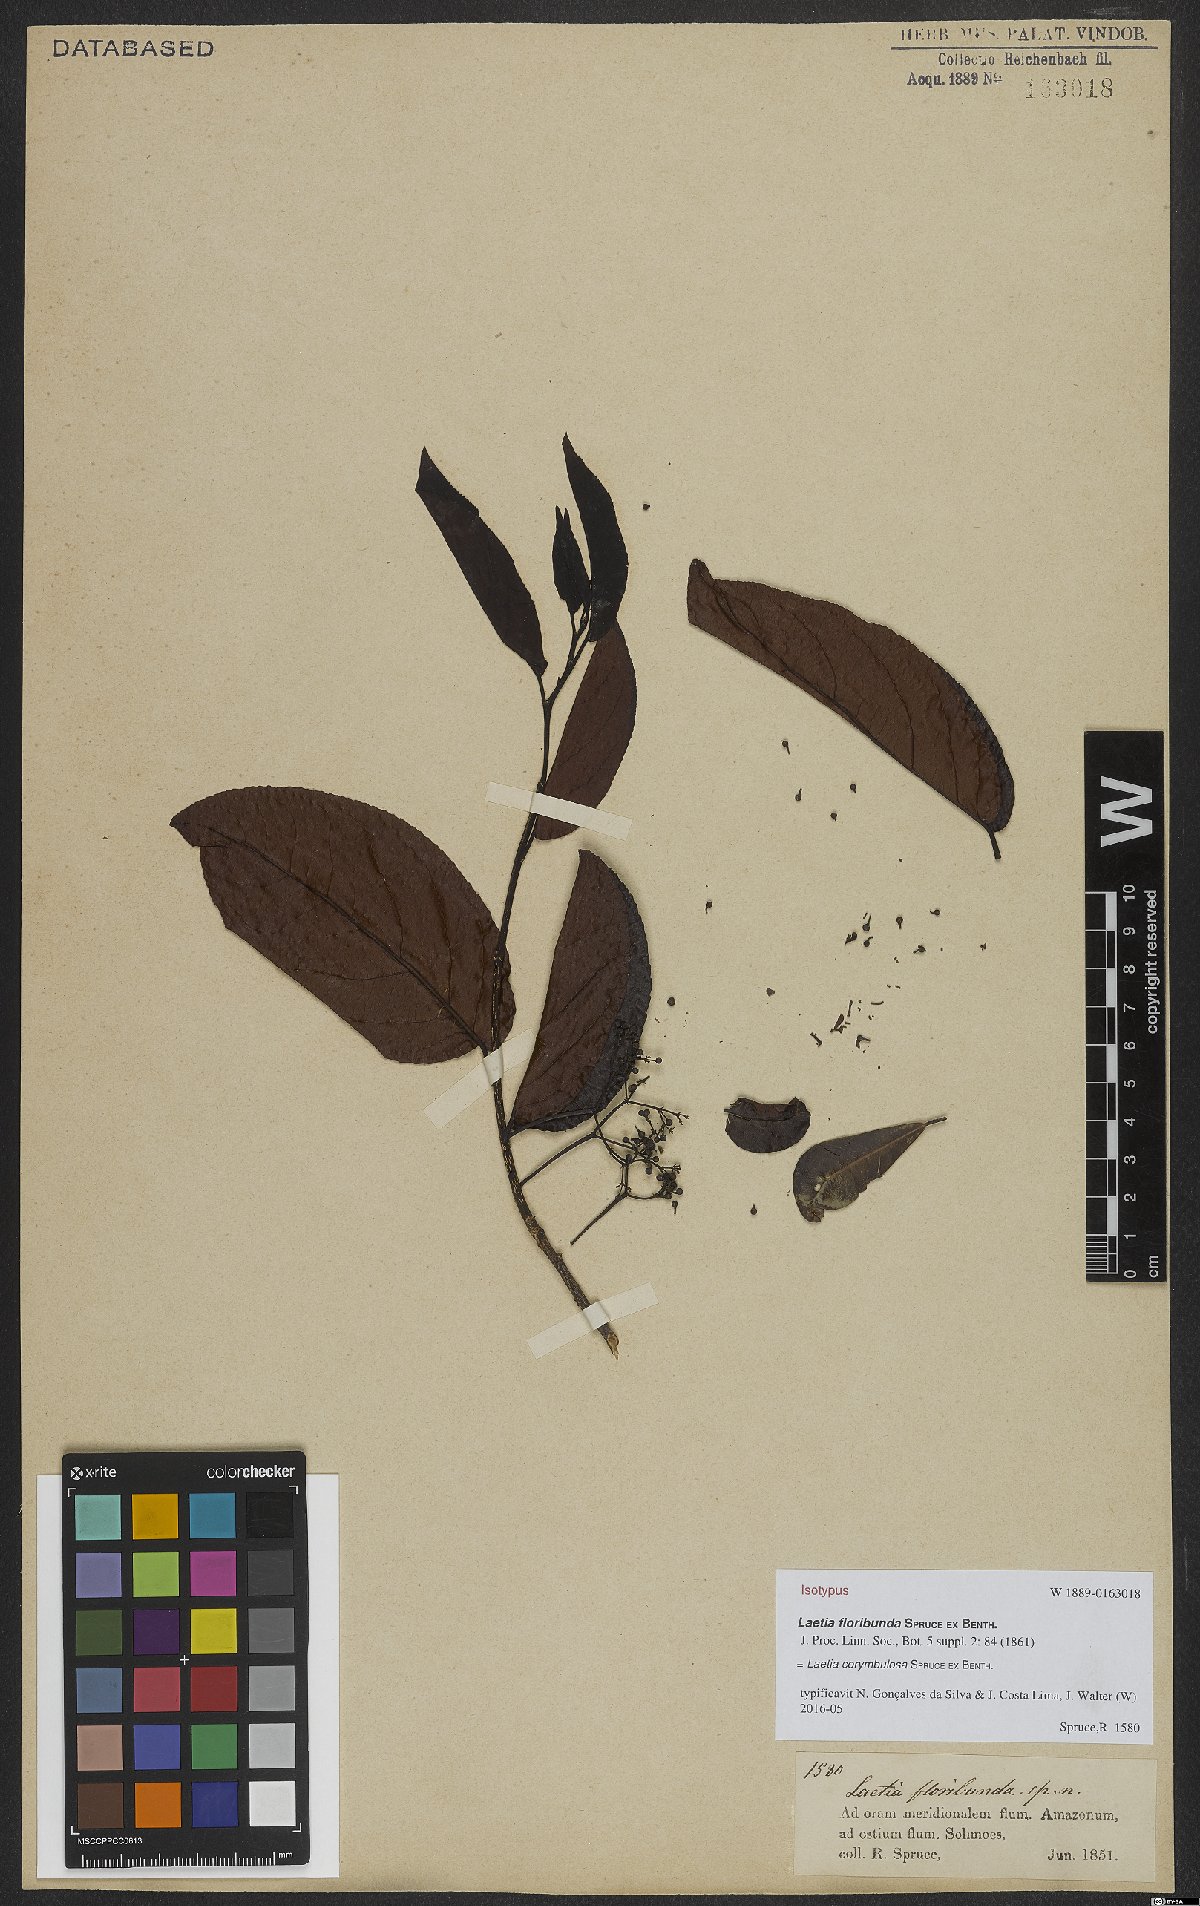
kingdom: Plantae
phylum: Tracheophyta
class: Magnoliopsida
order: Malpighiales
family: Salicaceae
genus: Casearia
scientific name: Casearia corymbulosa
